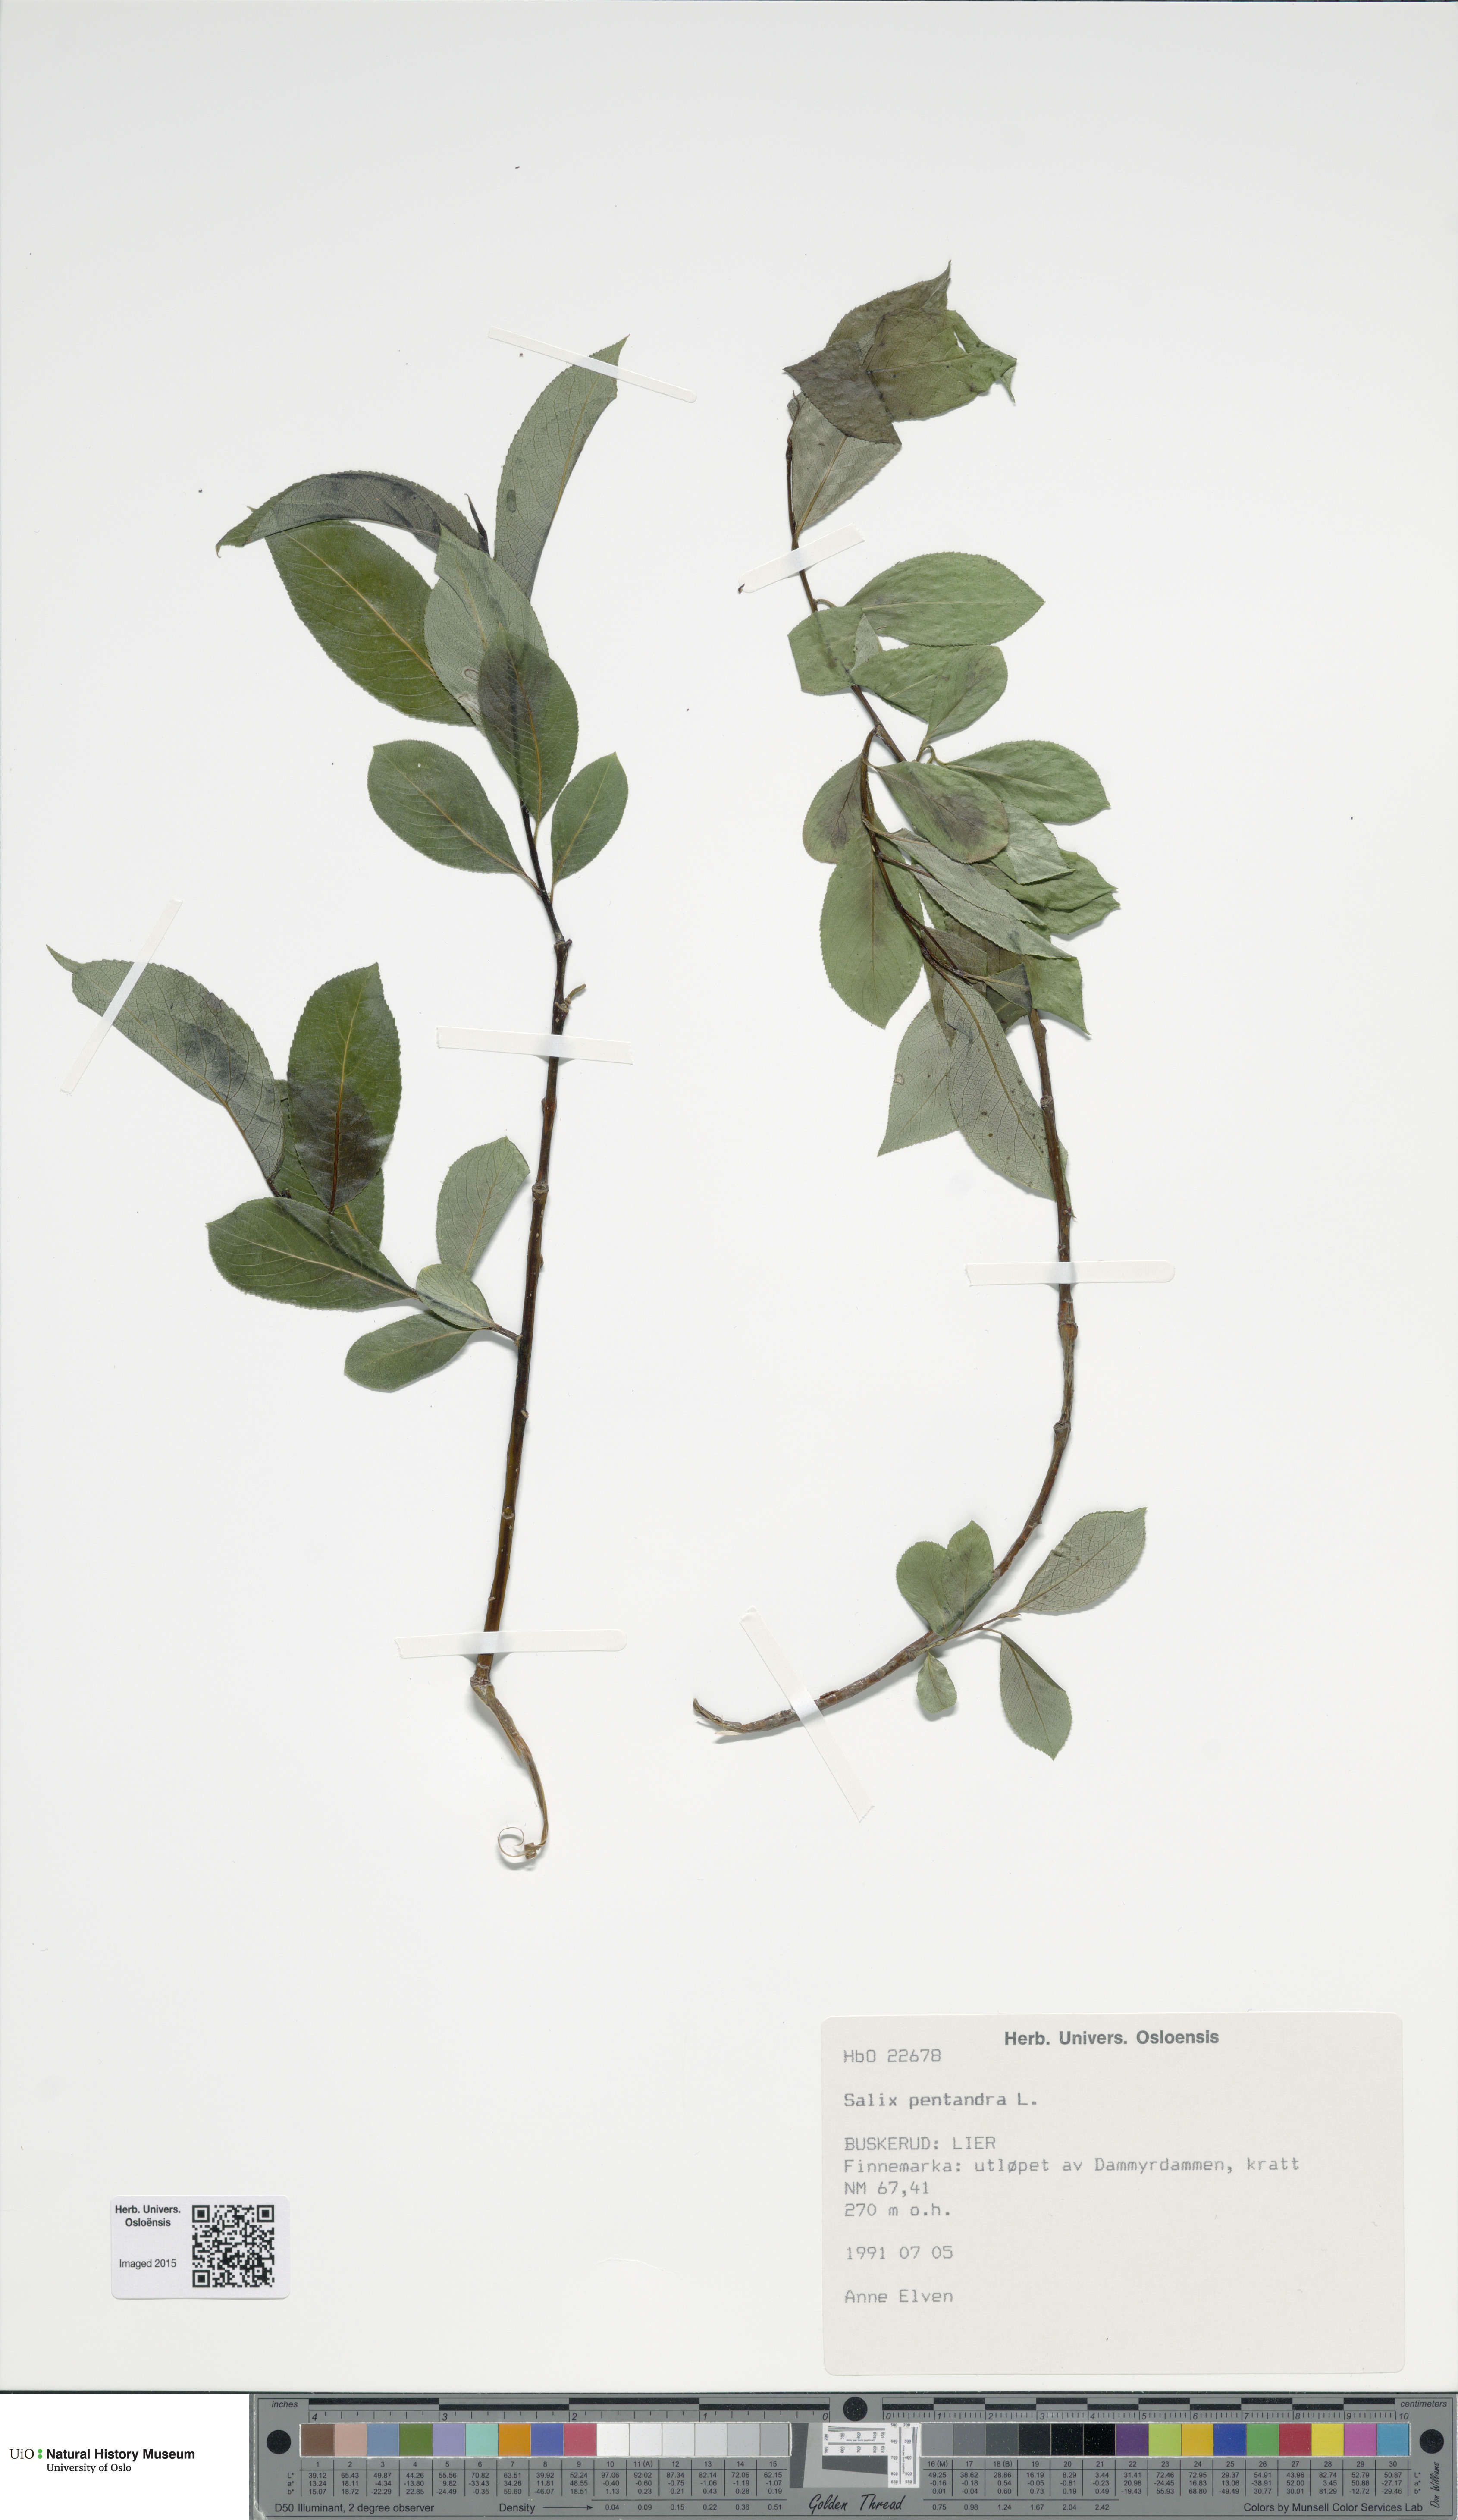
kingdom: Plantae
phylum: Tracheophyta
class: Magnoliopsida
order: Malpighiales
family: Salicaceae
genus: Salix
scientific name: Salix pentandra
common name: Bay willow
